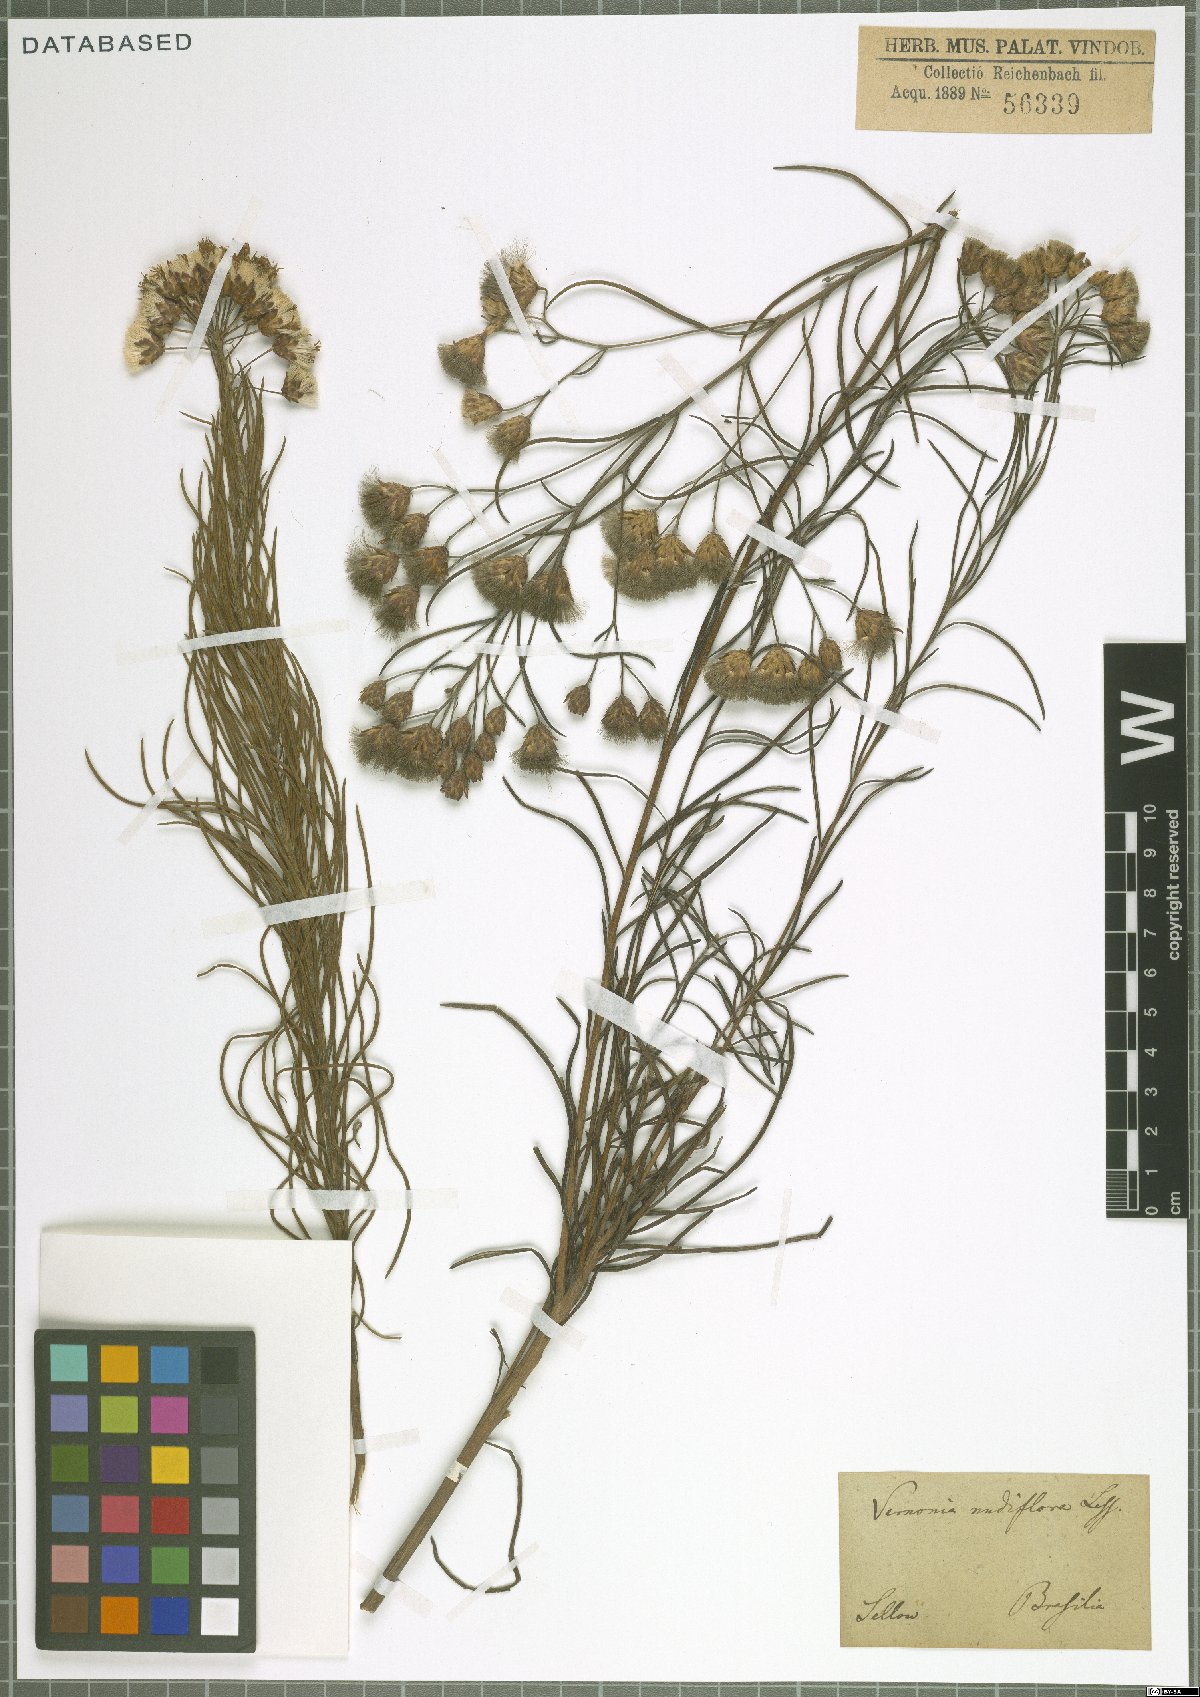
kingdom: Plantae
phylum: Tracheophyta
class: Magnoliopsida
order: Asterales
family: Asteraceae
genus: Vernonanthura
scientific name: Vernonanthura nudiflora
